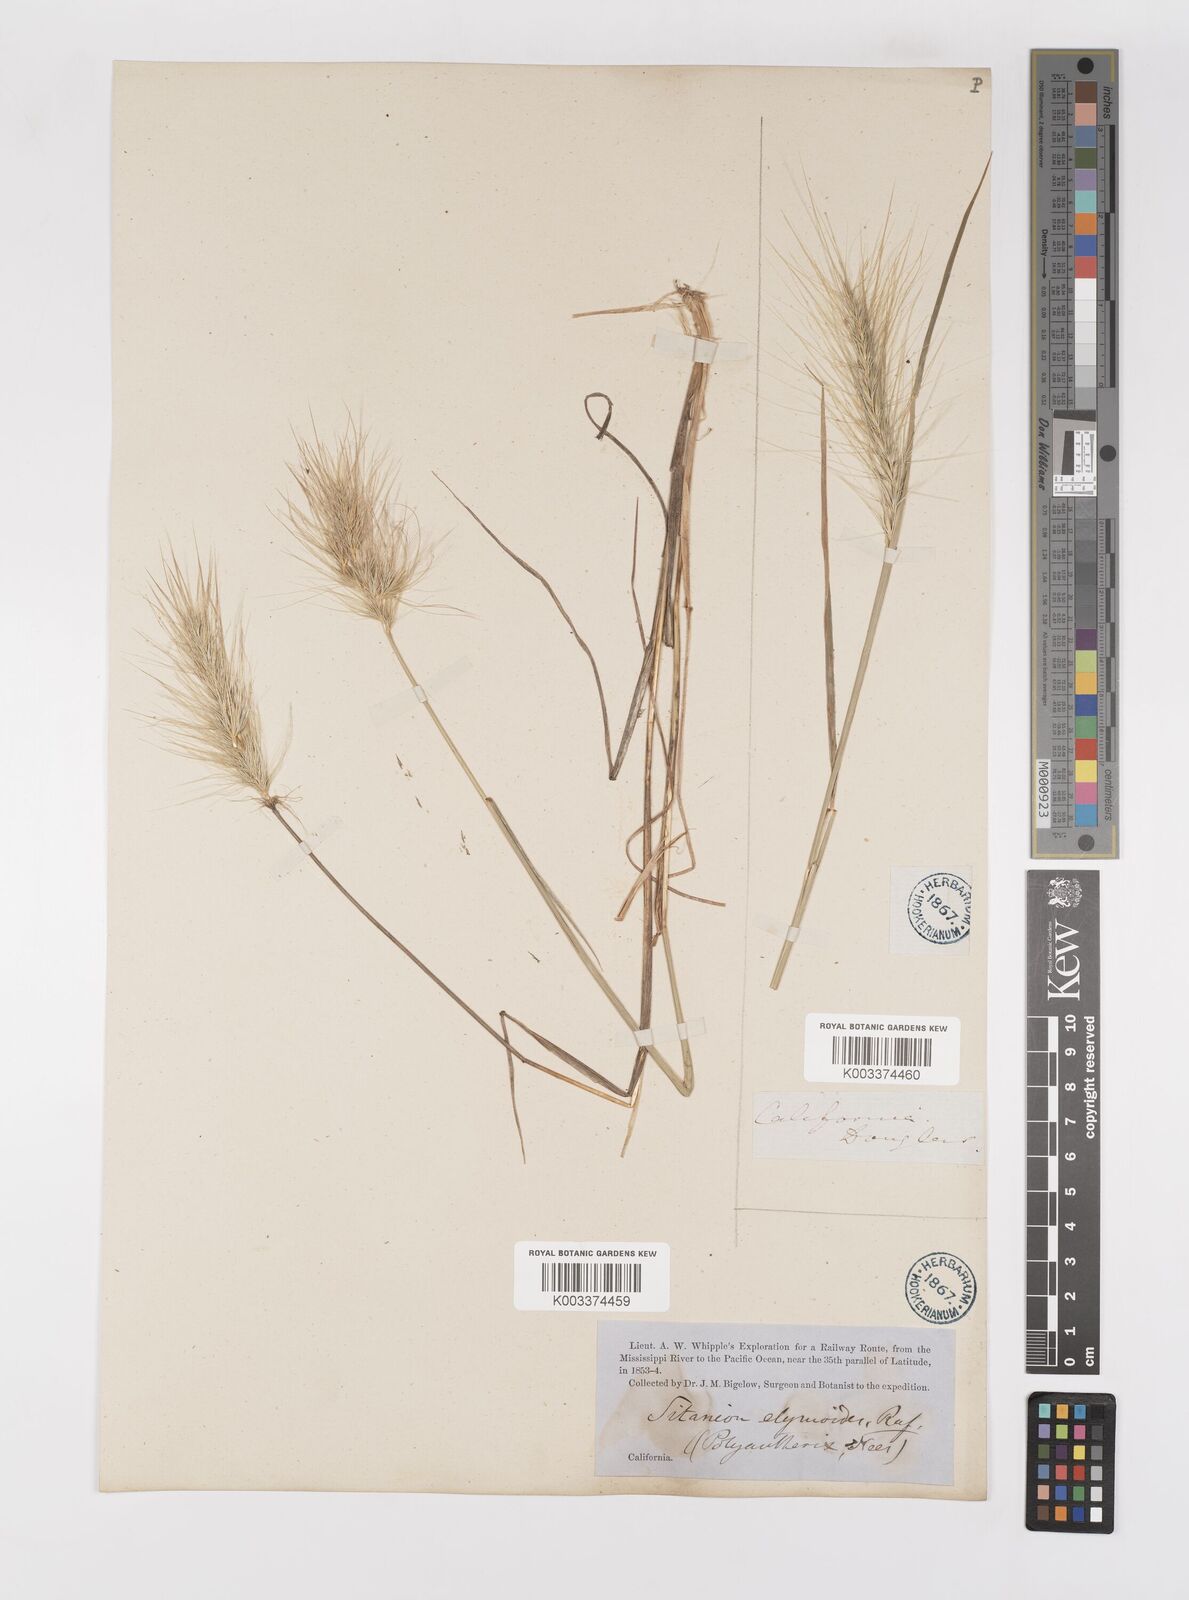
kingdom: Plantae
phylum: Tracheophyta
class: Liliopsida
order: Poales
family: Poaceae
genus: Elymus
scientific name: Elymus multisetus
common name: Big squirreltail
